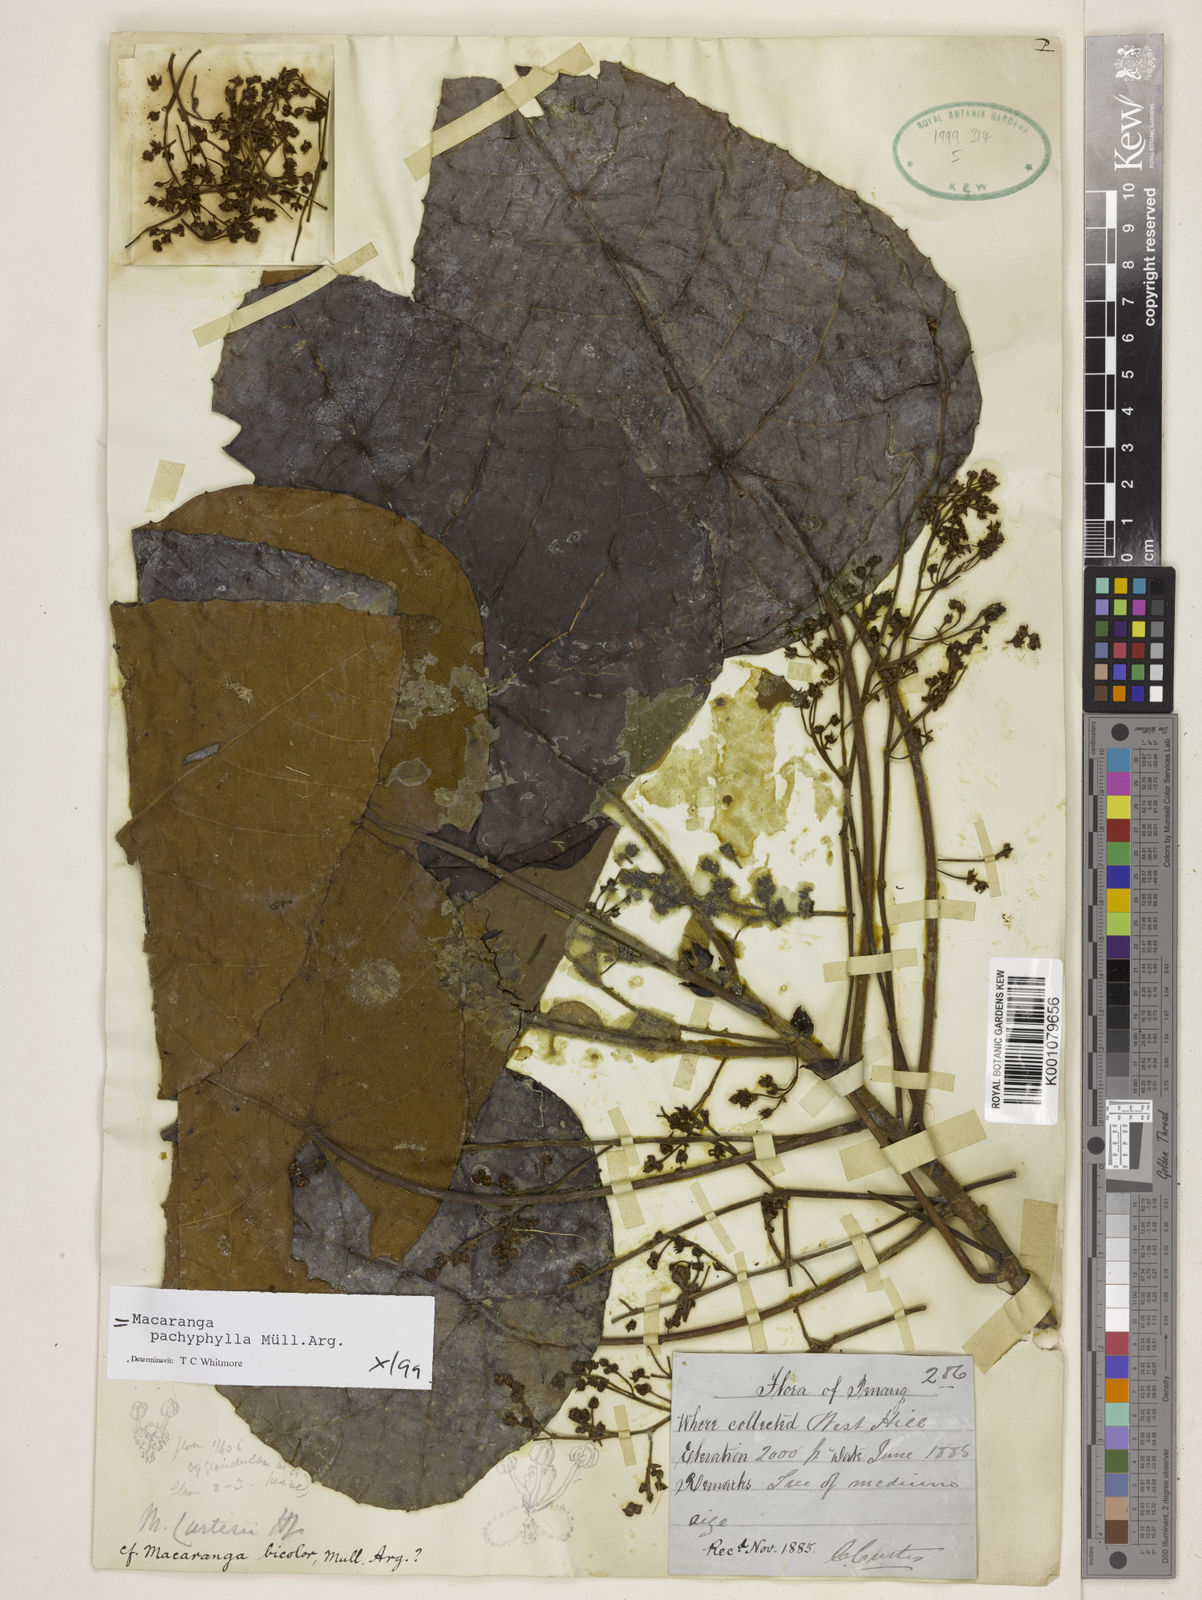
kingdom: Plantae
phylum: Tracheophyta
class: Magnoliopsida
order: Malpighiales
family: Euphorbiaceae
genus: Macaranga
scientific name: Macaranga
